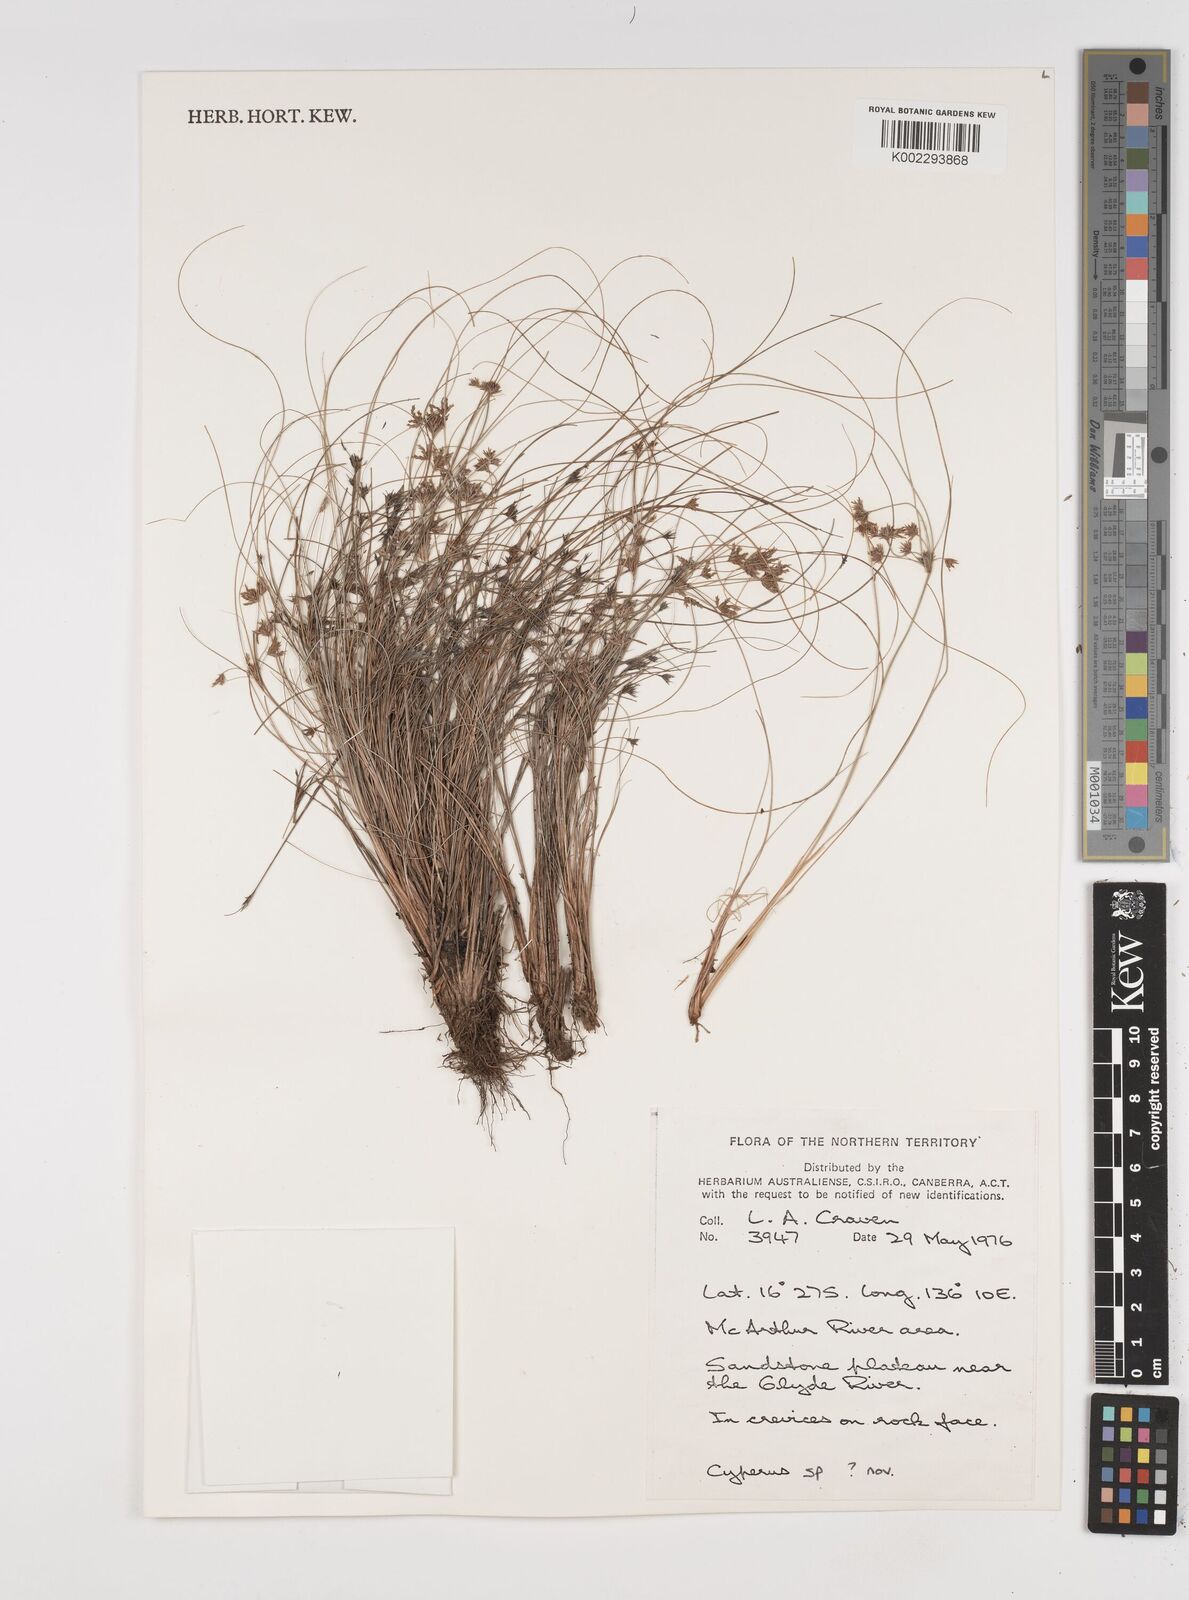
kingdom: Plantae
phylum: Tracheophyta
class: Liliopsida
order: Poales
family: Cyperaceae
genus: Cyperus
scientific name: Cyperus
